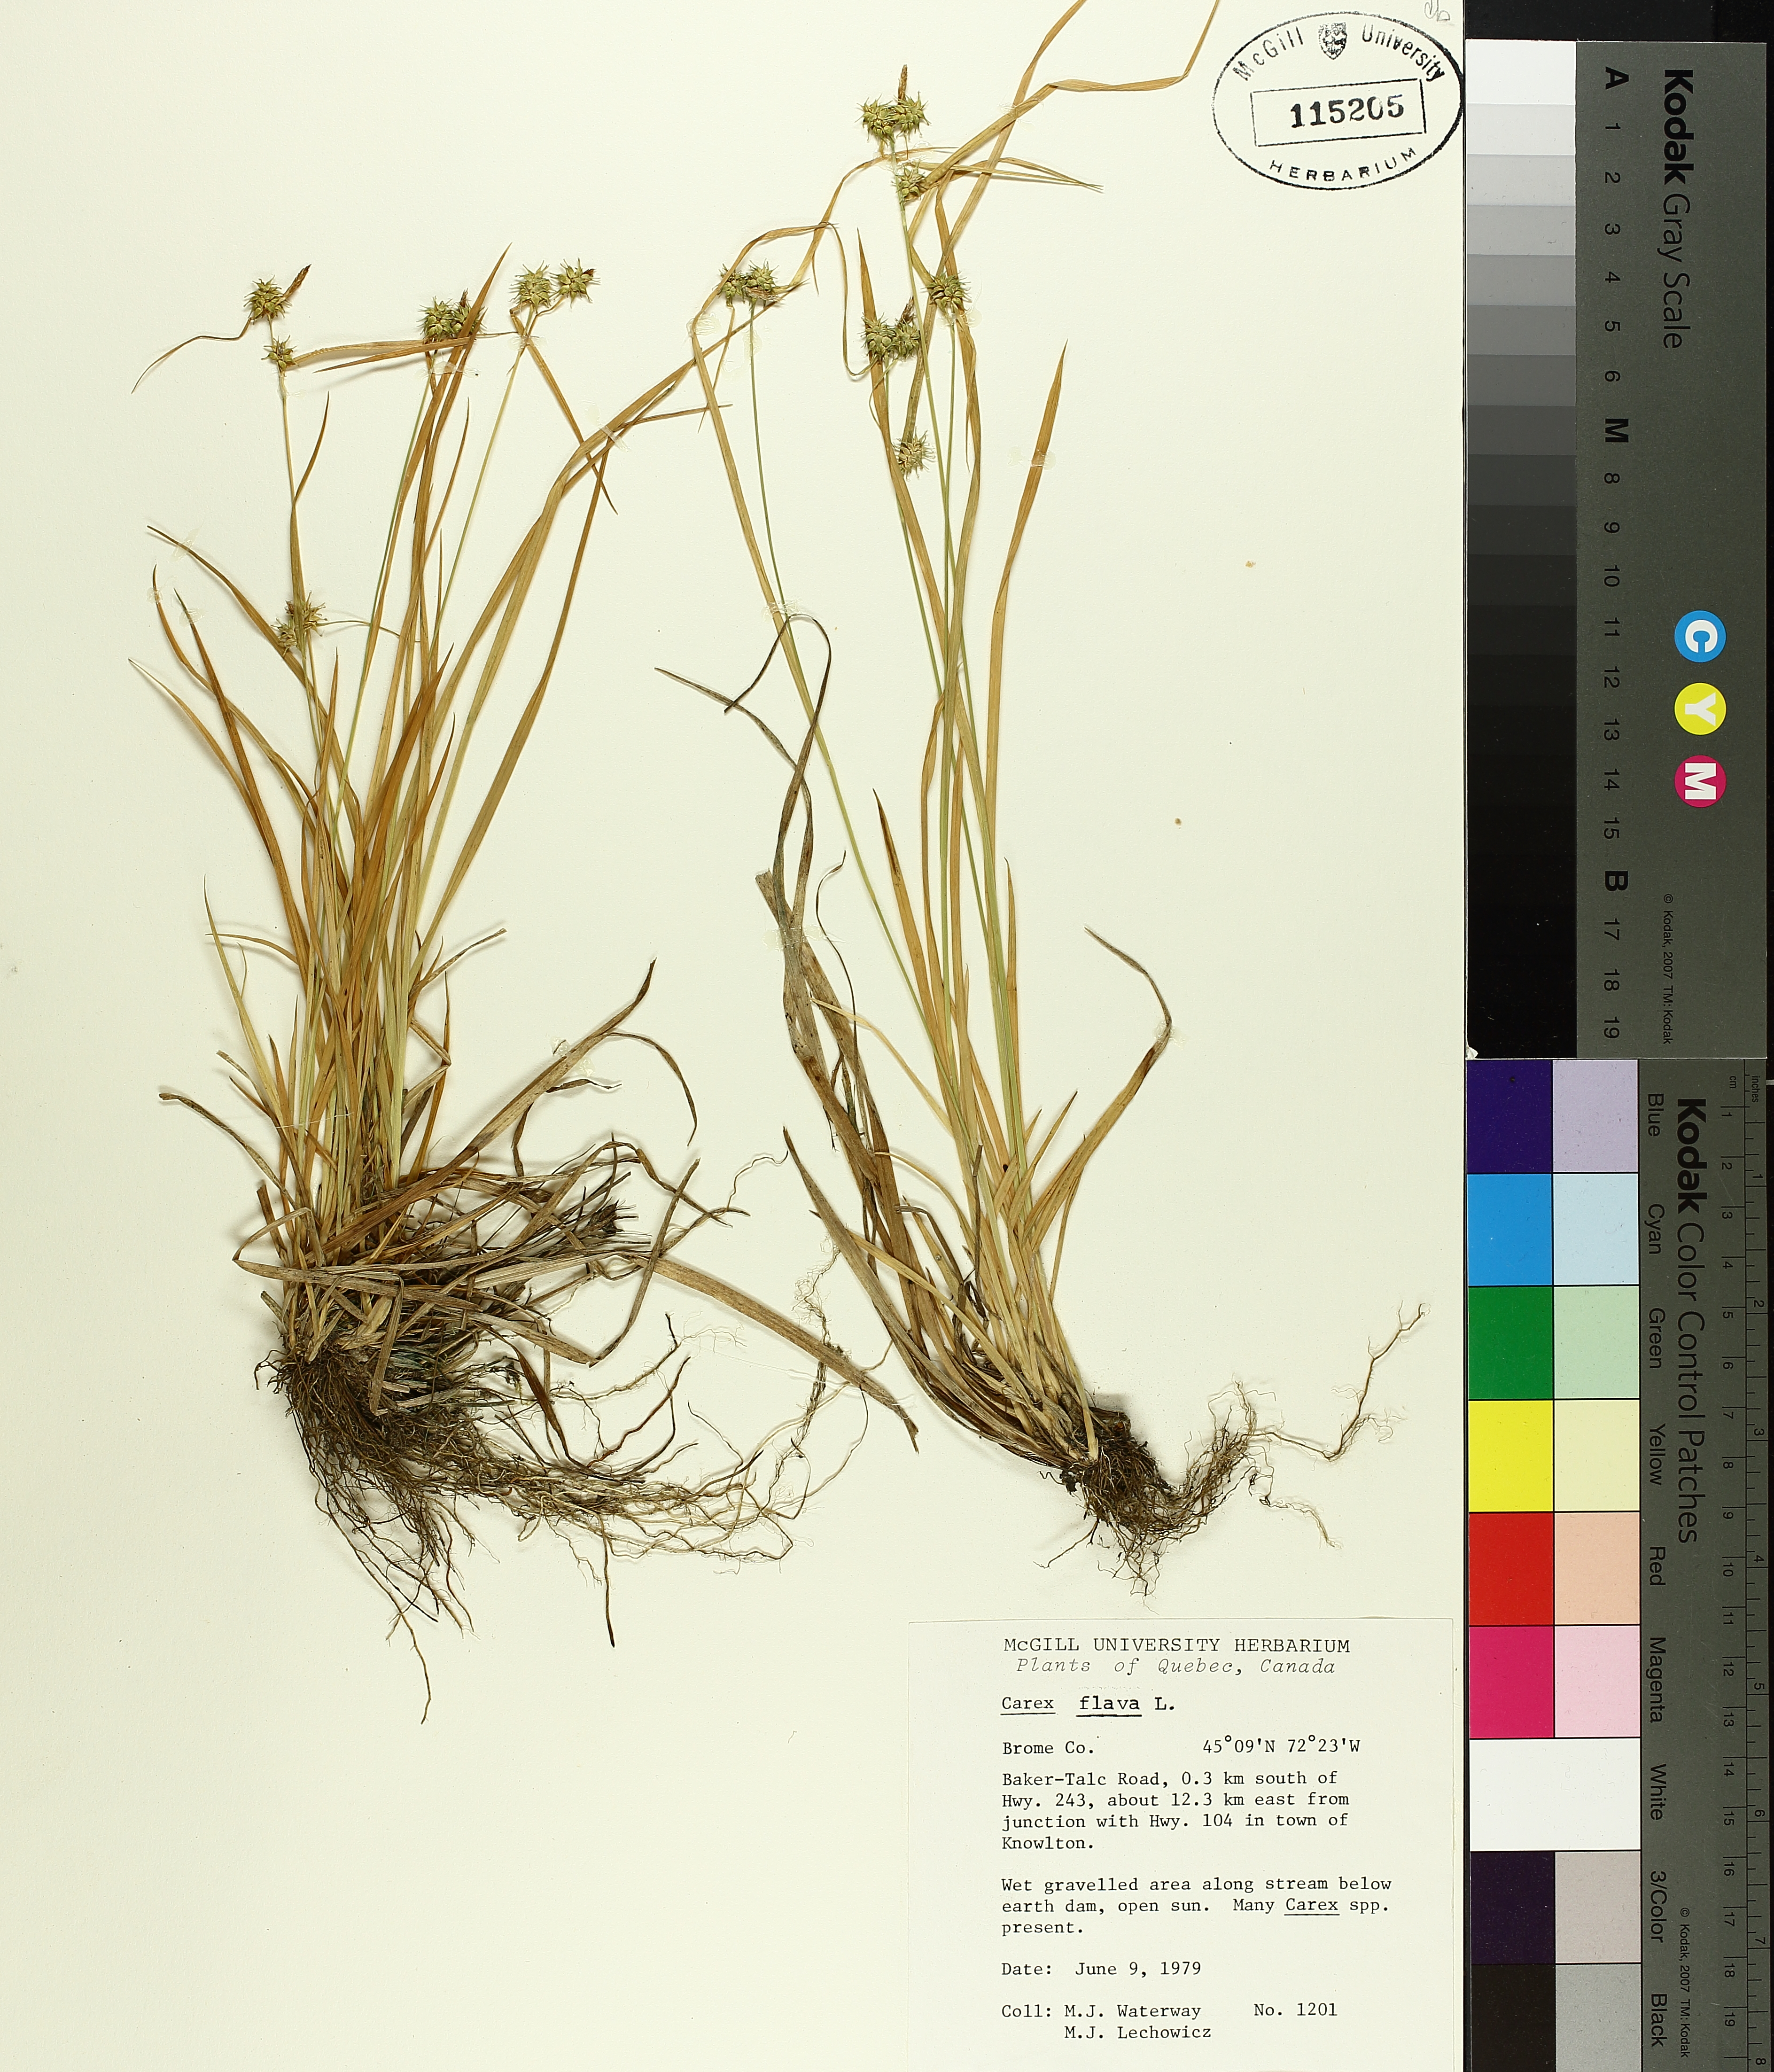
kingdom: Plantae
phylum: Tracheophyta
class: Liliopsida
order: Poales
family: Cyperaceae
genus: Carex
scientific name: Carex flava
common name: Large yellow-sedge
